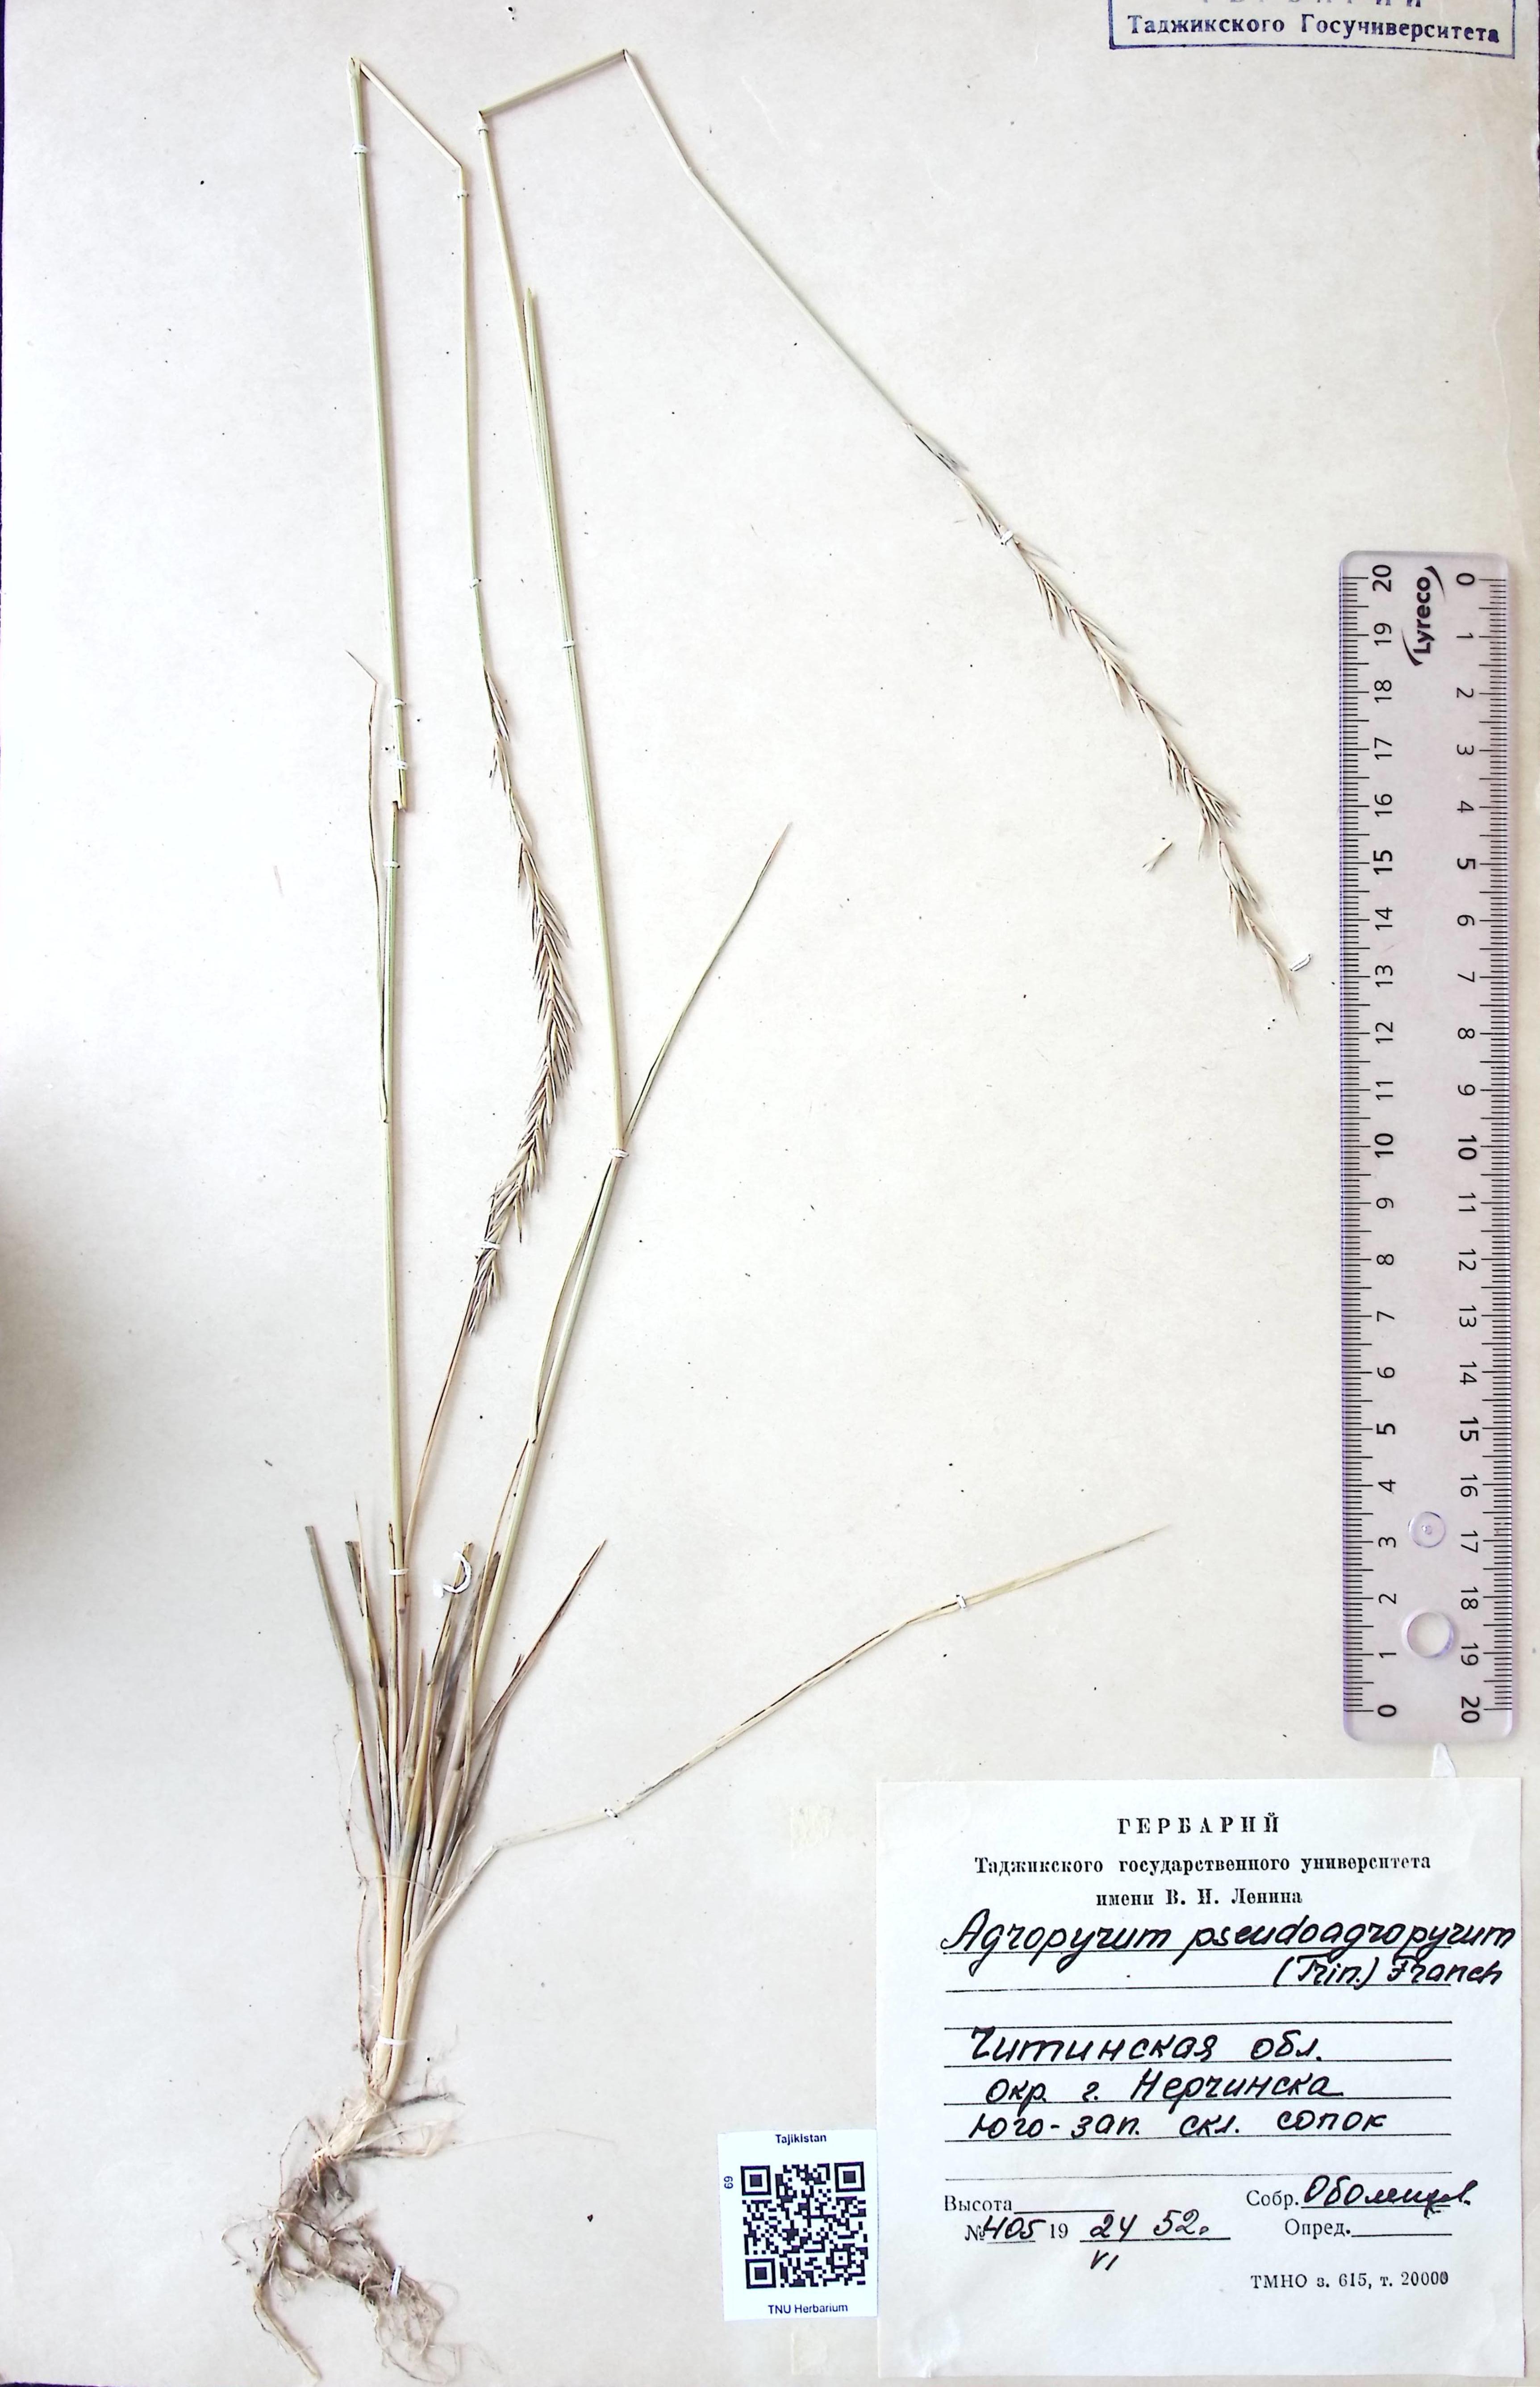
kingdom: Plantae
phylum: Tracheophyta
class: Liliopsida
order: Poales
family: Poaceae
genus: Leymus
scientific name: Leymus chinensis
